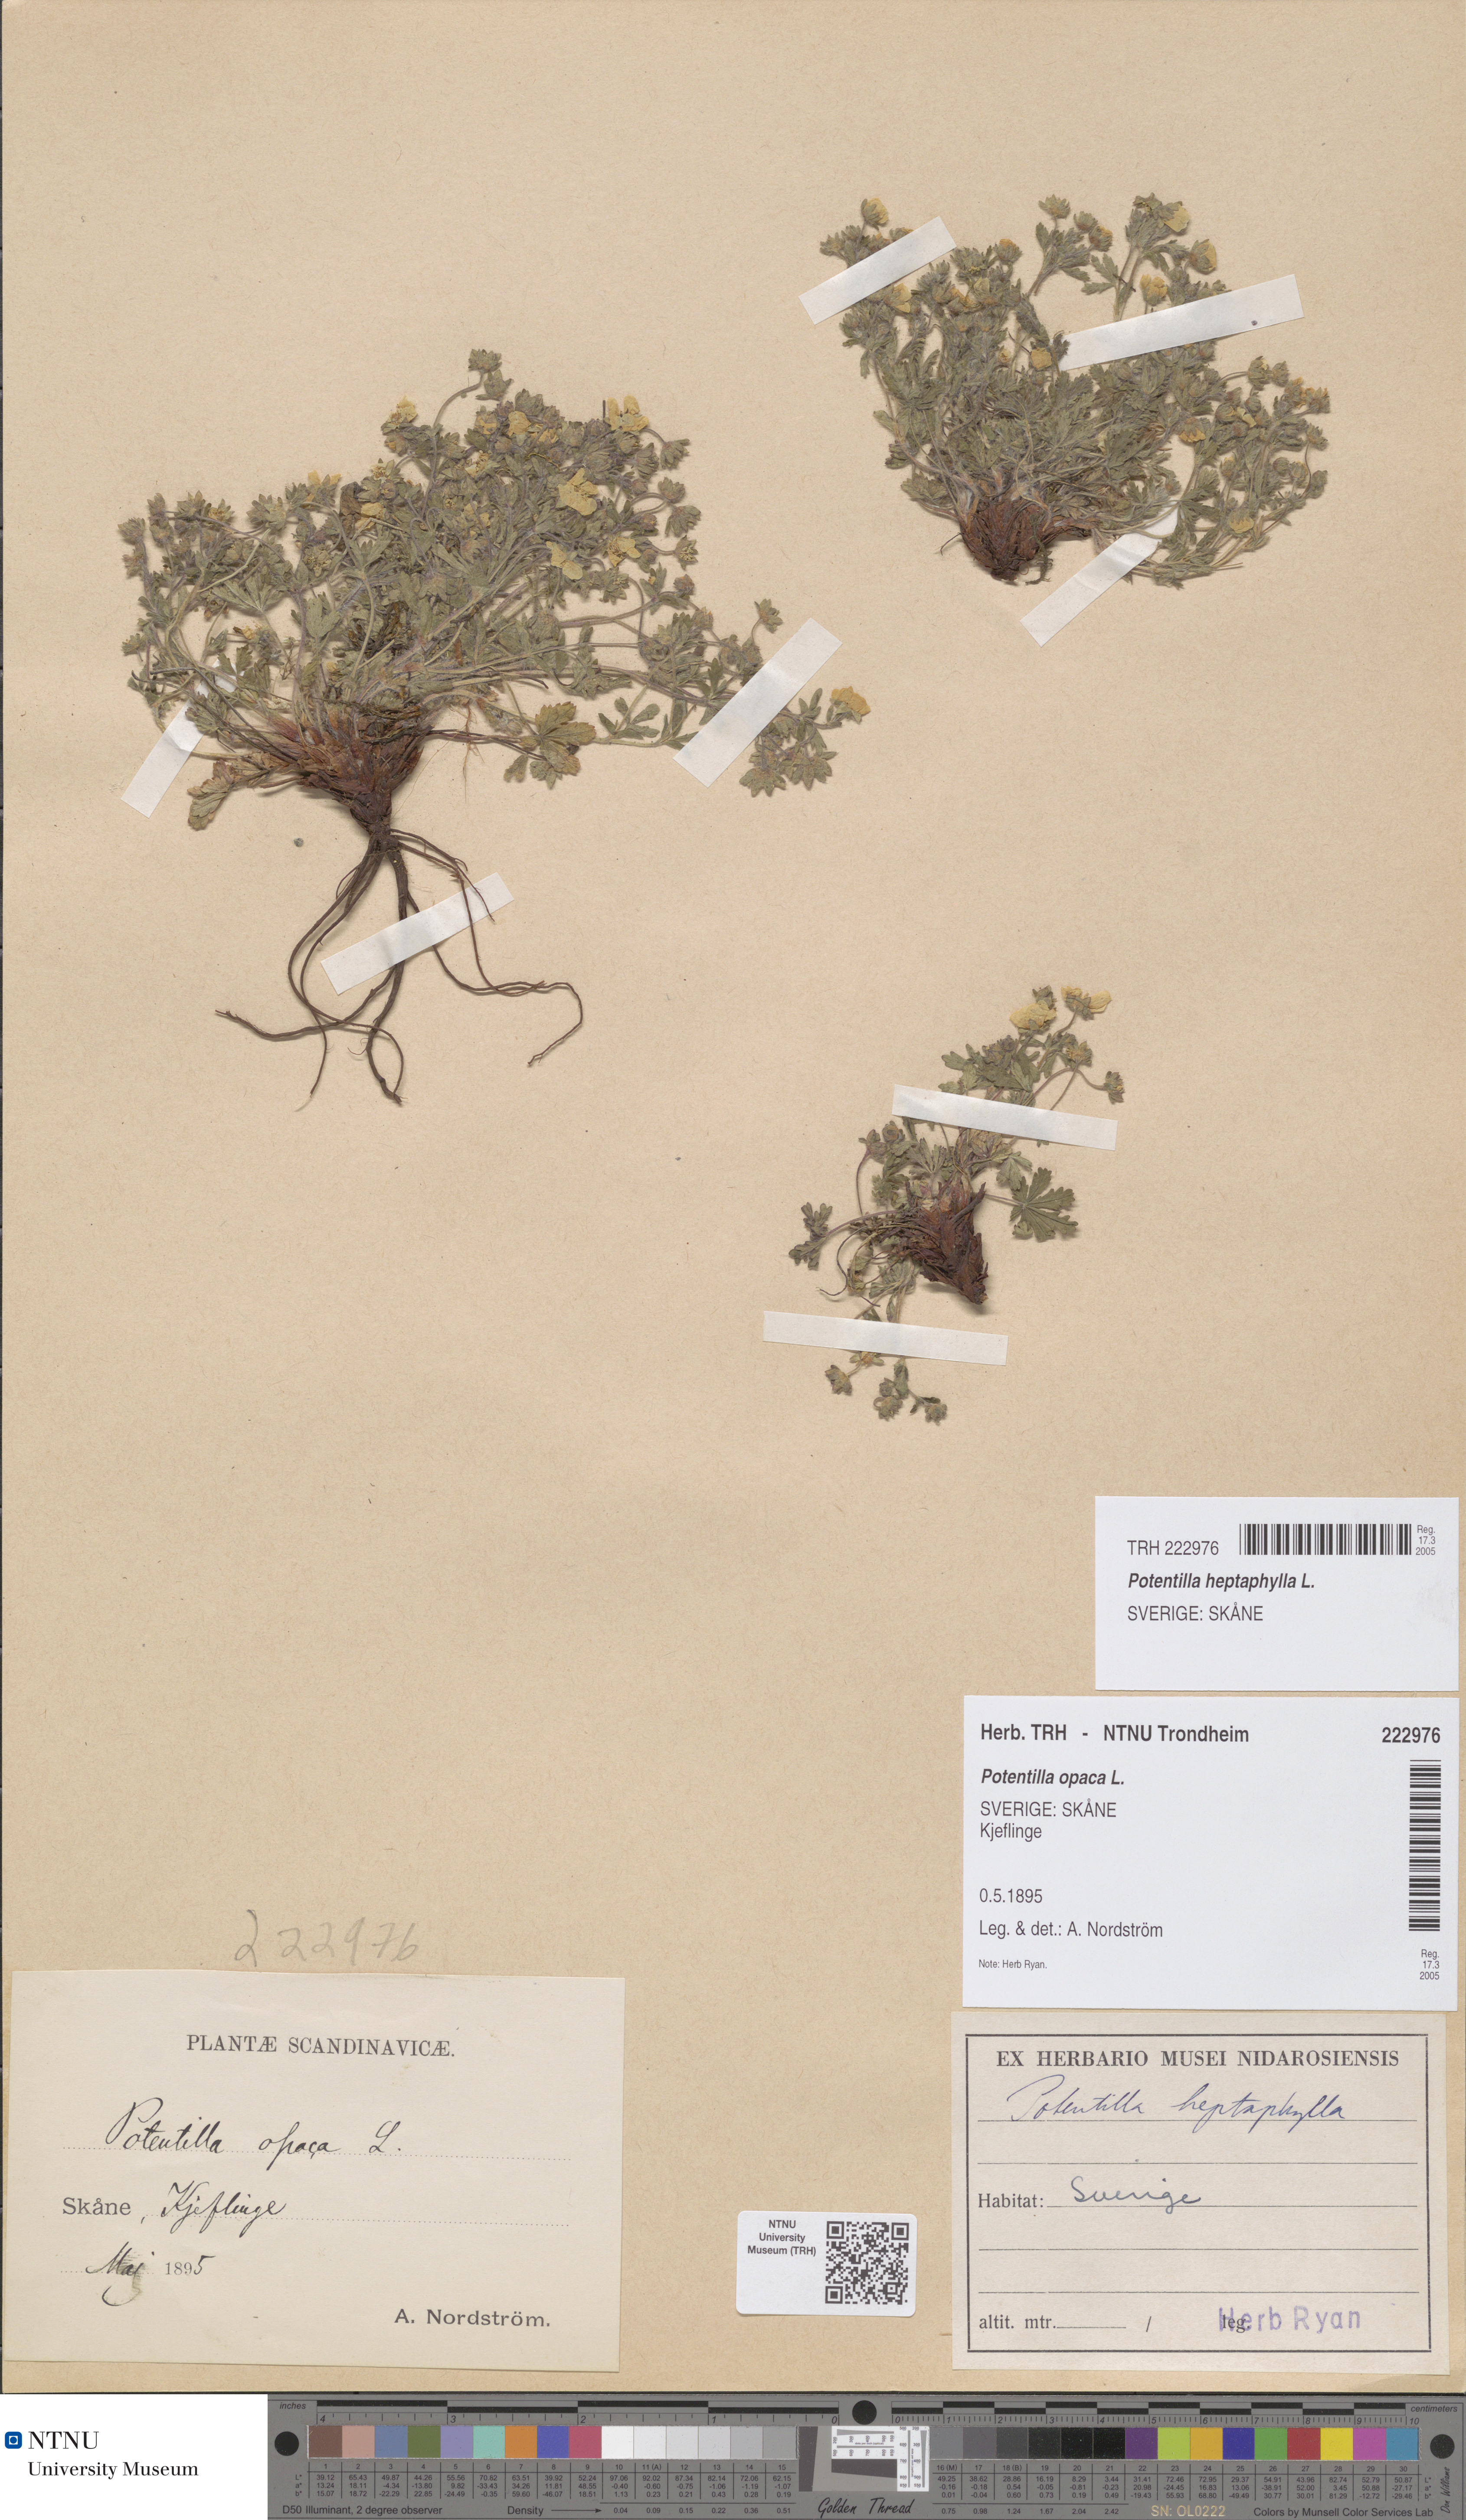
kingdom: Plantae
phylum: Tracheophyta
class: Magnoliopsida
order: Rosales
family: Rosaceae
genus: Potentilla
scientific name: Potentilla heptaphylla
